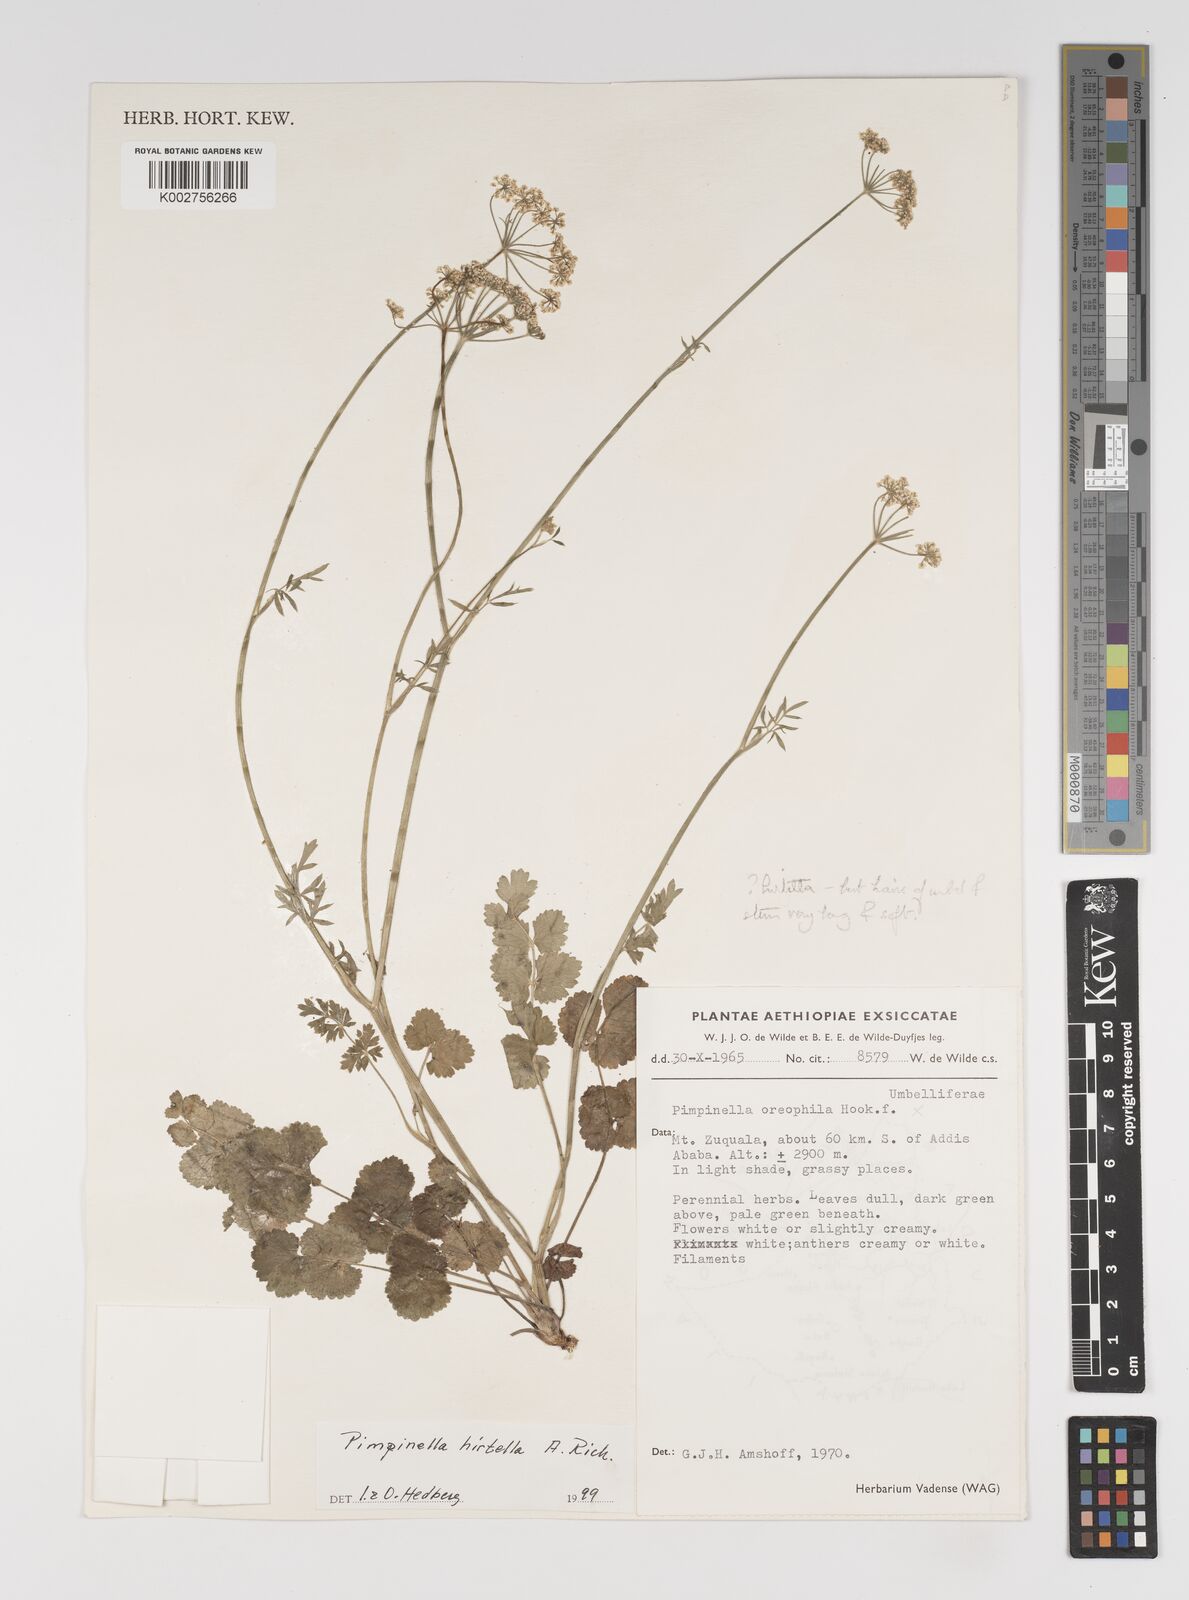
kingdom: Plantae
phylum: Tracheophyta
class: Magnoliopsida
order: Apiales
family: Apiaceae
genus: Pimpinella
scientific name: Pimpinella hirtella
